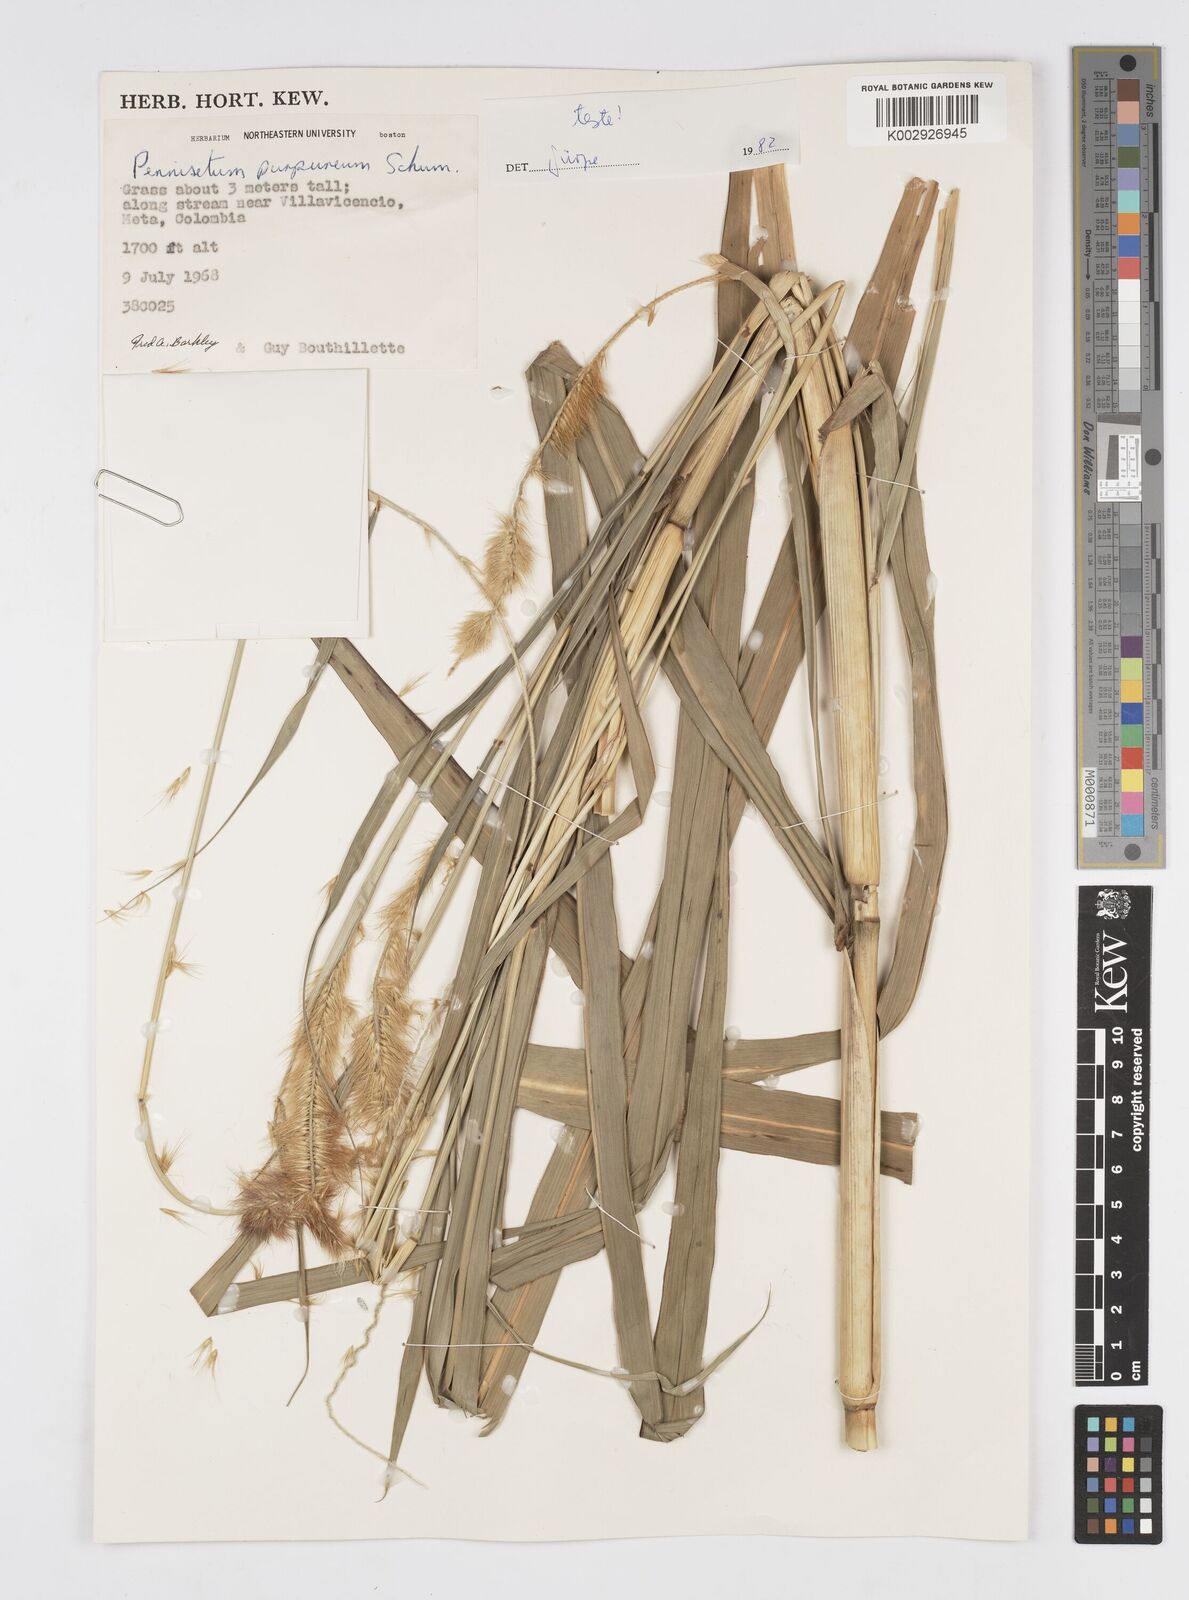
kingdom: Plantae
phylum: Tracheophyta
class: Liliopsida
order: Poales
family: Poaceae
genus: Cenchrus
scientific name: Cenchrus purpureus
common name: Elephant grass
